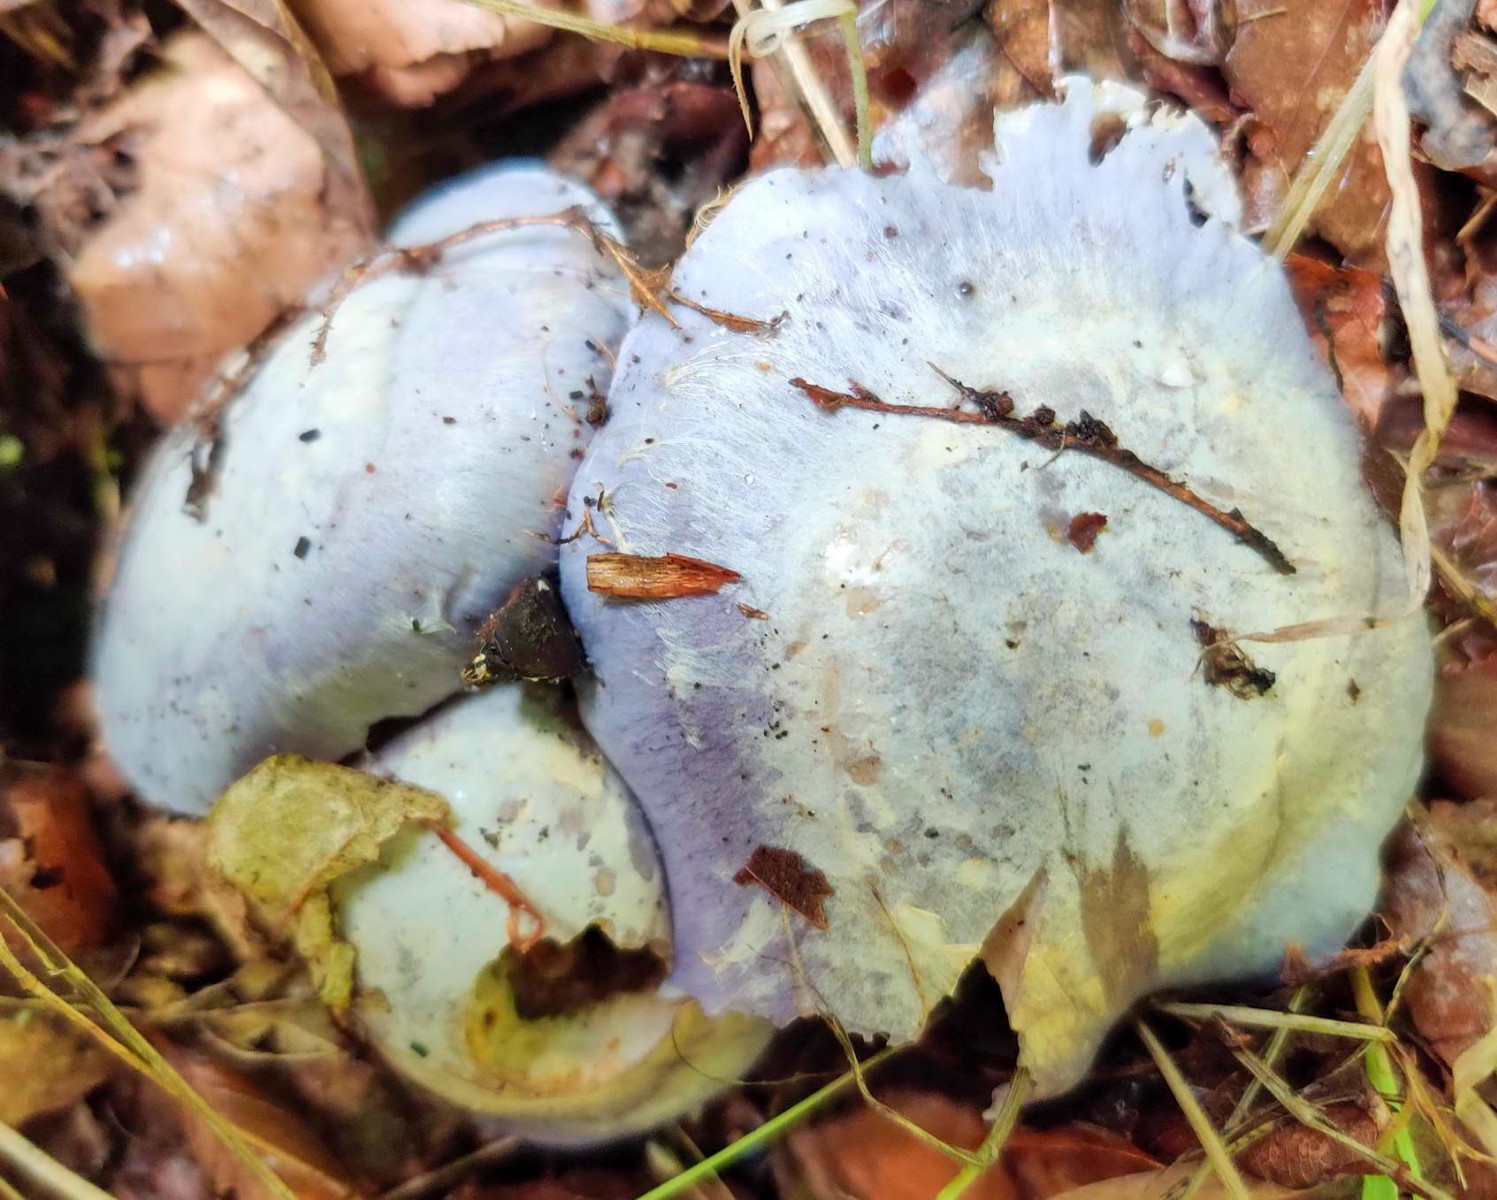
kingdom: Fungi
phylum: Basidiomycota
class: Agaricomycetes
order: Agaricales
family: Cortinariaceae
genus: Cortinarius
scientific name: Cortinarius caerulescens
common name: blåkødet slørhat
